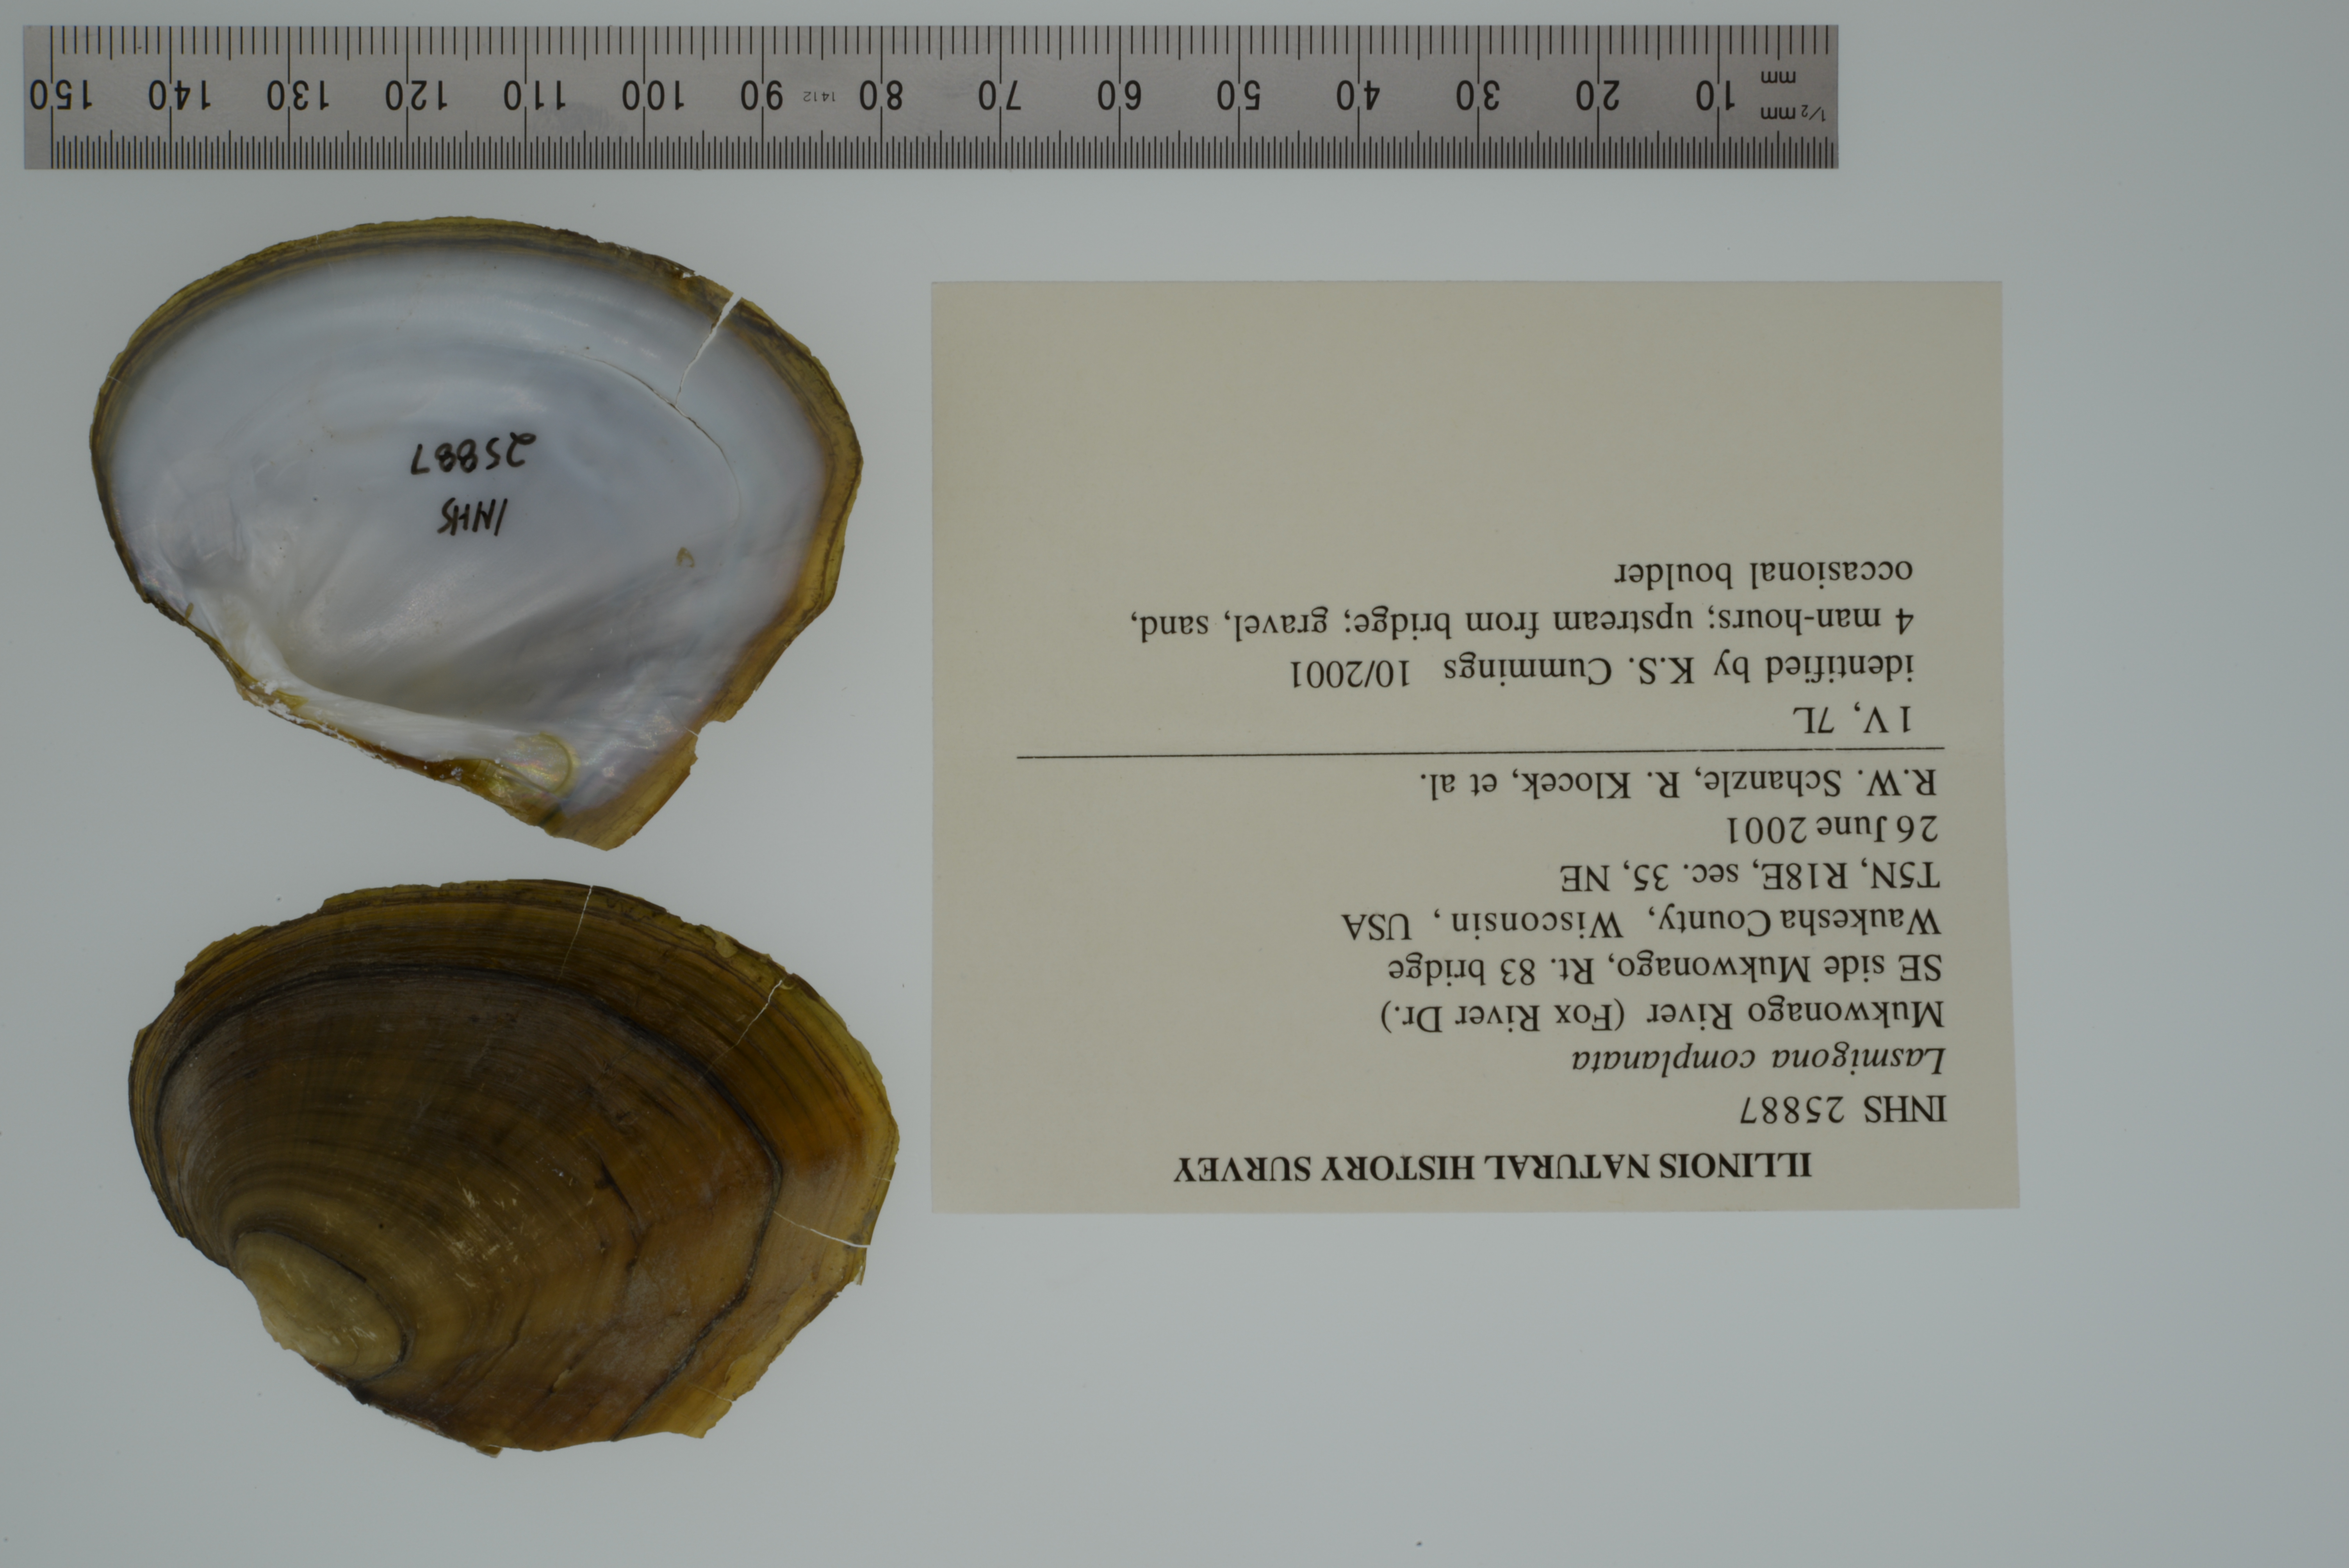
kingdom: Animalia
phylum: Mollusca
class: Bivalvia
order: Unionida
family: Unionidae
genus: Lasmigona
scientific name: Lasmigona complanata
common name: White heelsplitter
